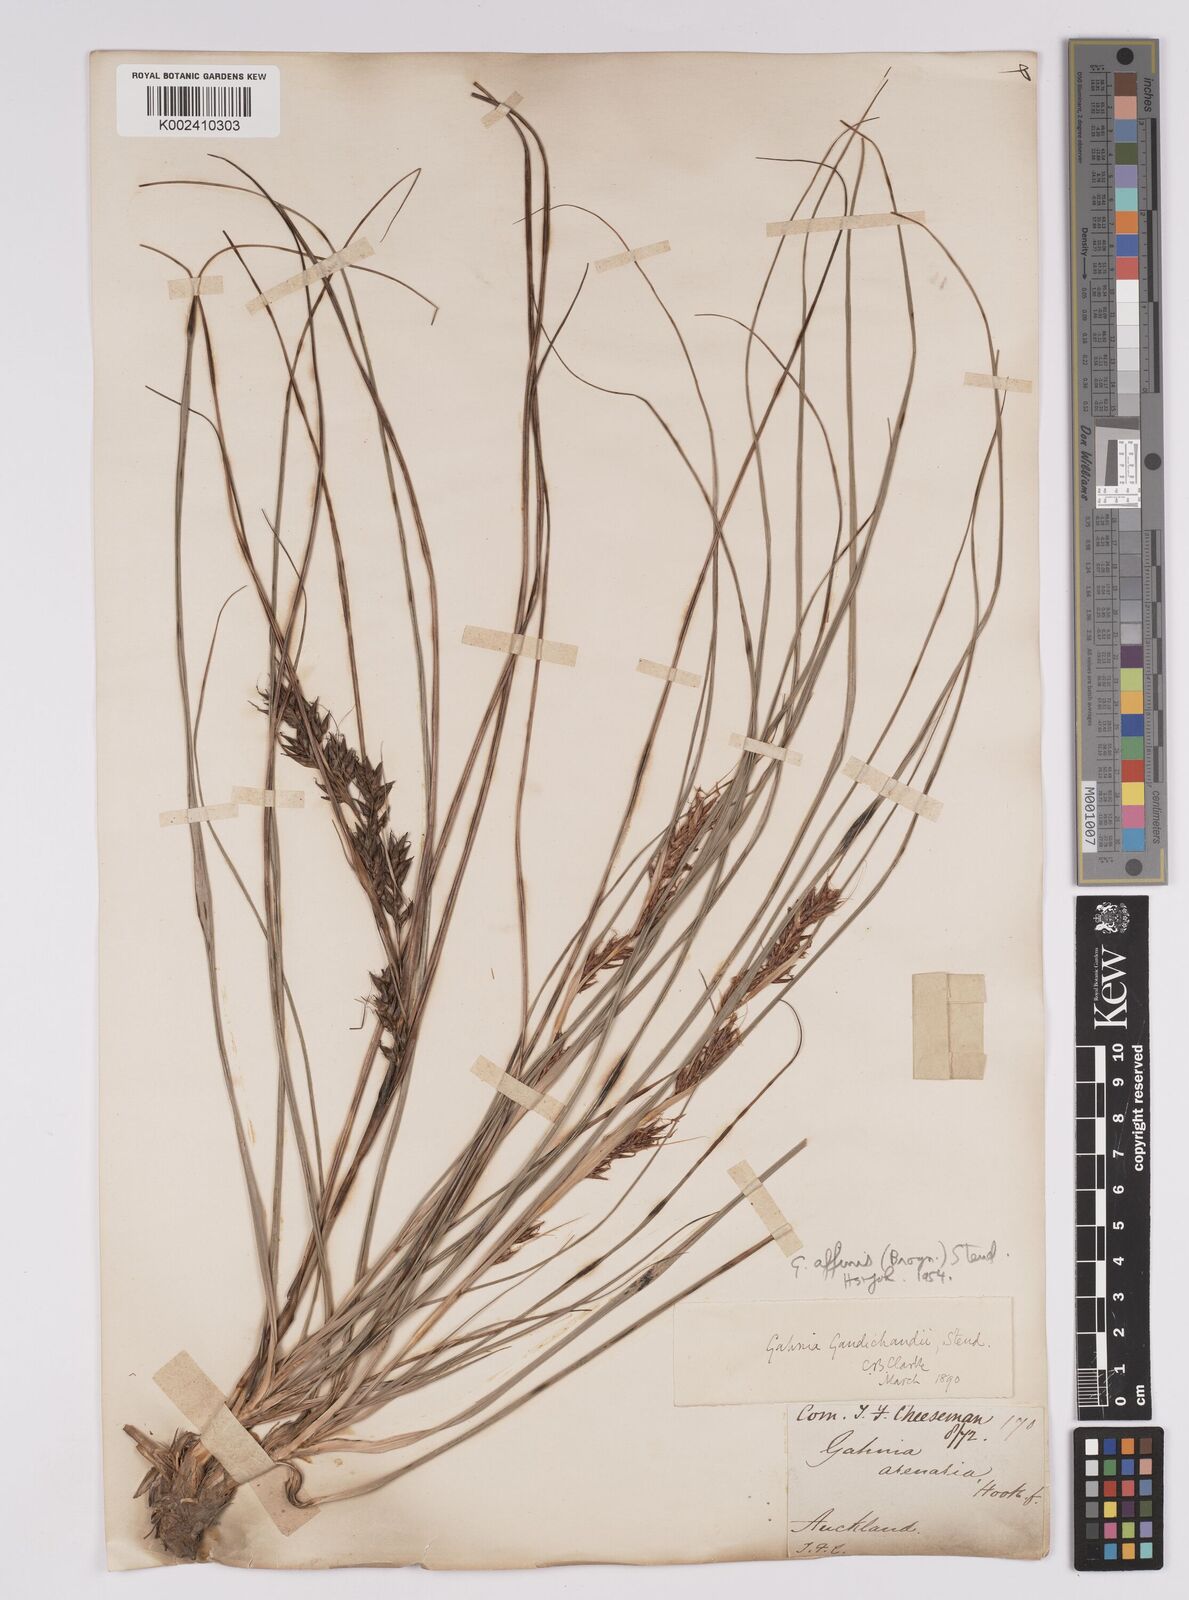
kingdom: Plantae
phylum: Tracheophyta
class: Liliopsida
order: Poales
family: Cyperaceae
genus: Morelotia
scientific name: Morelotia affinis
